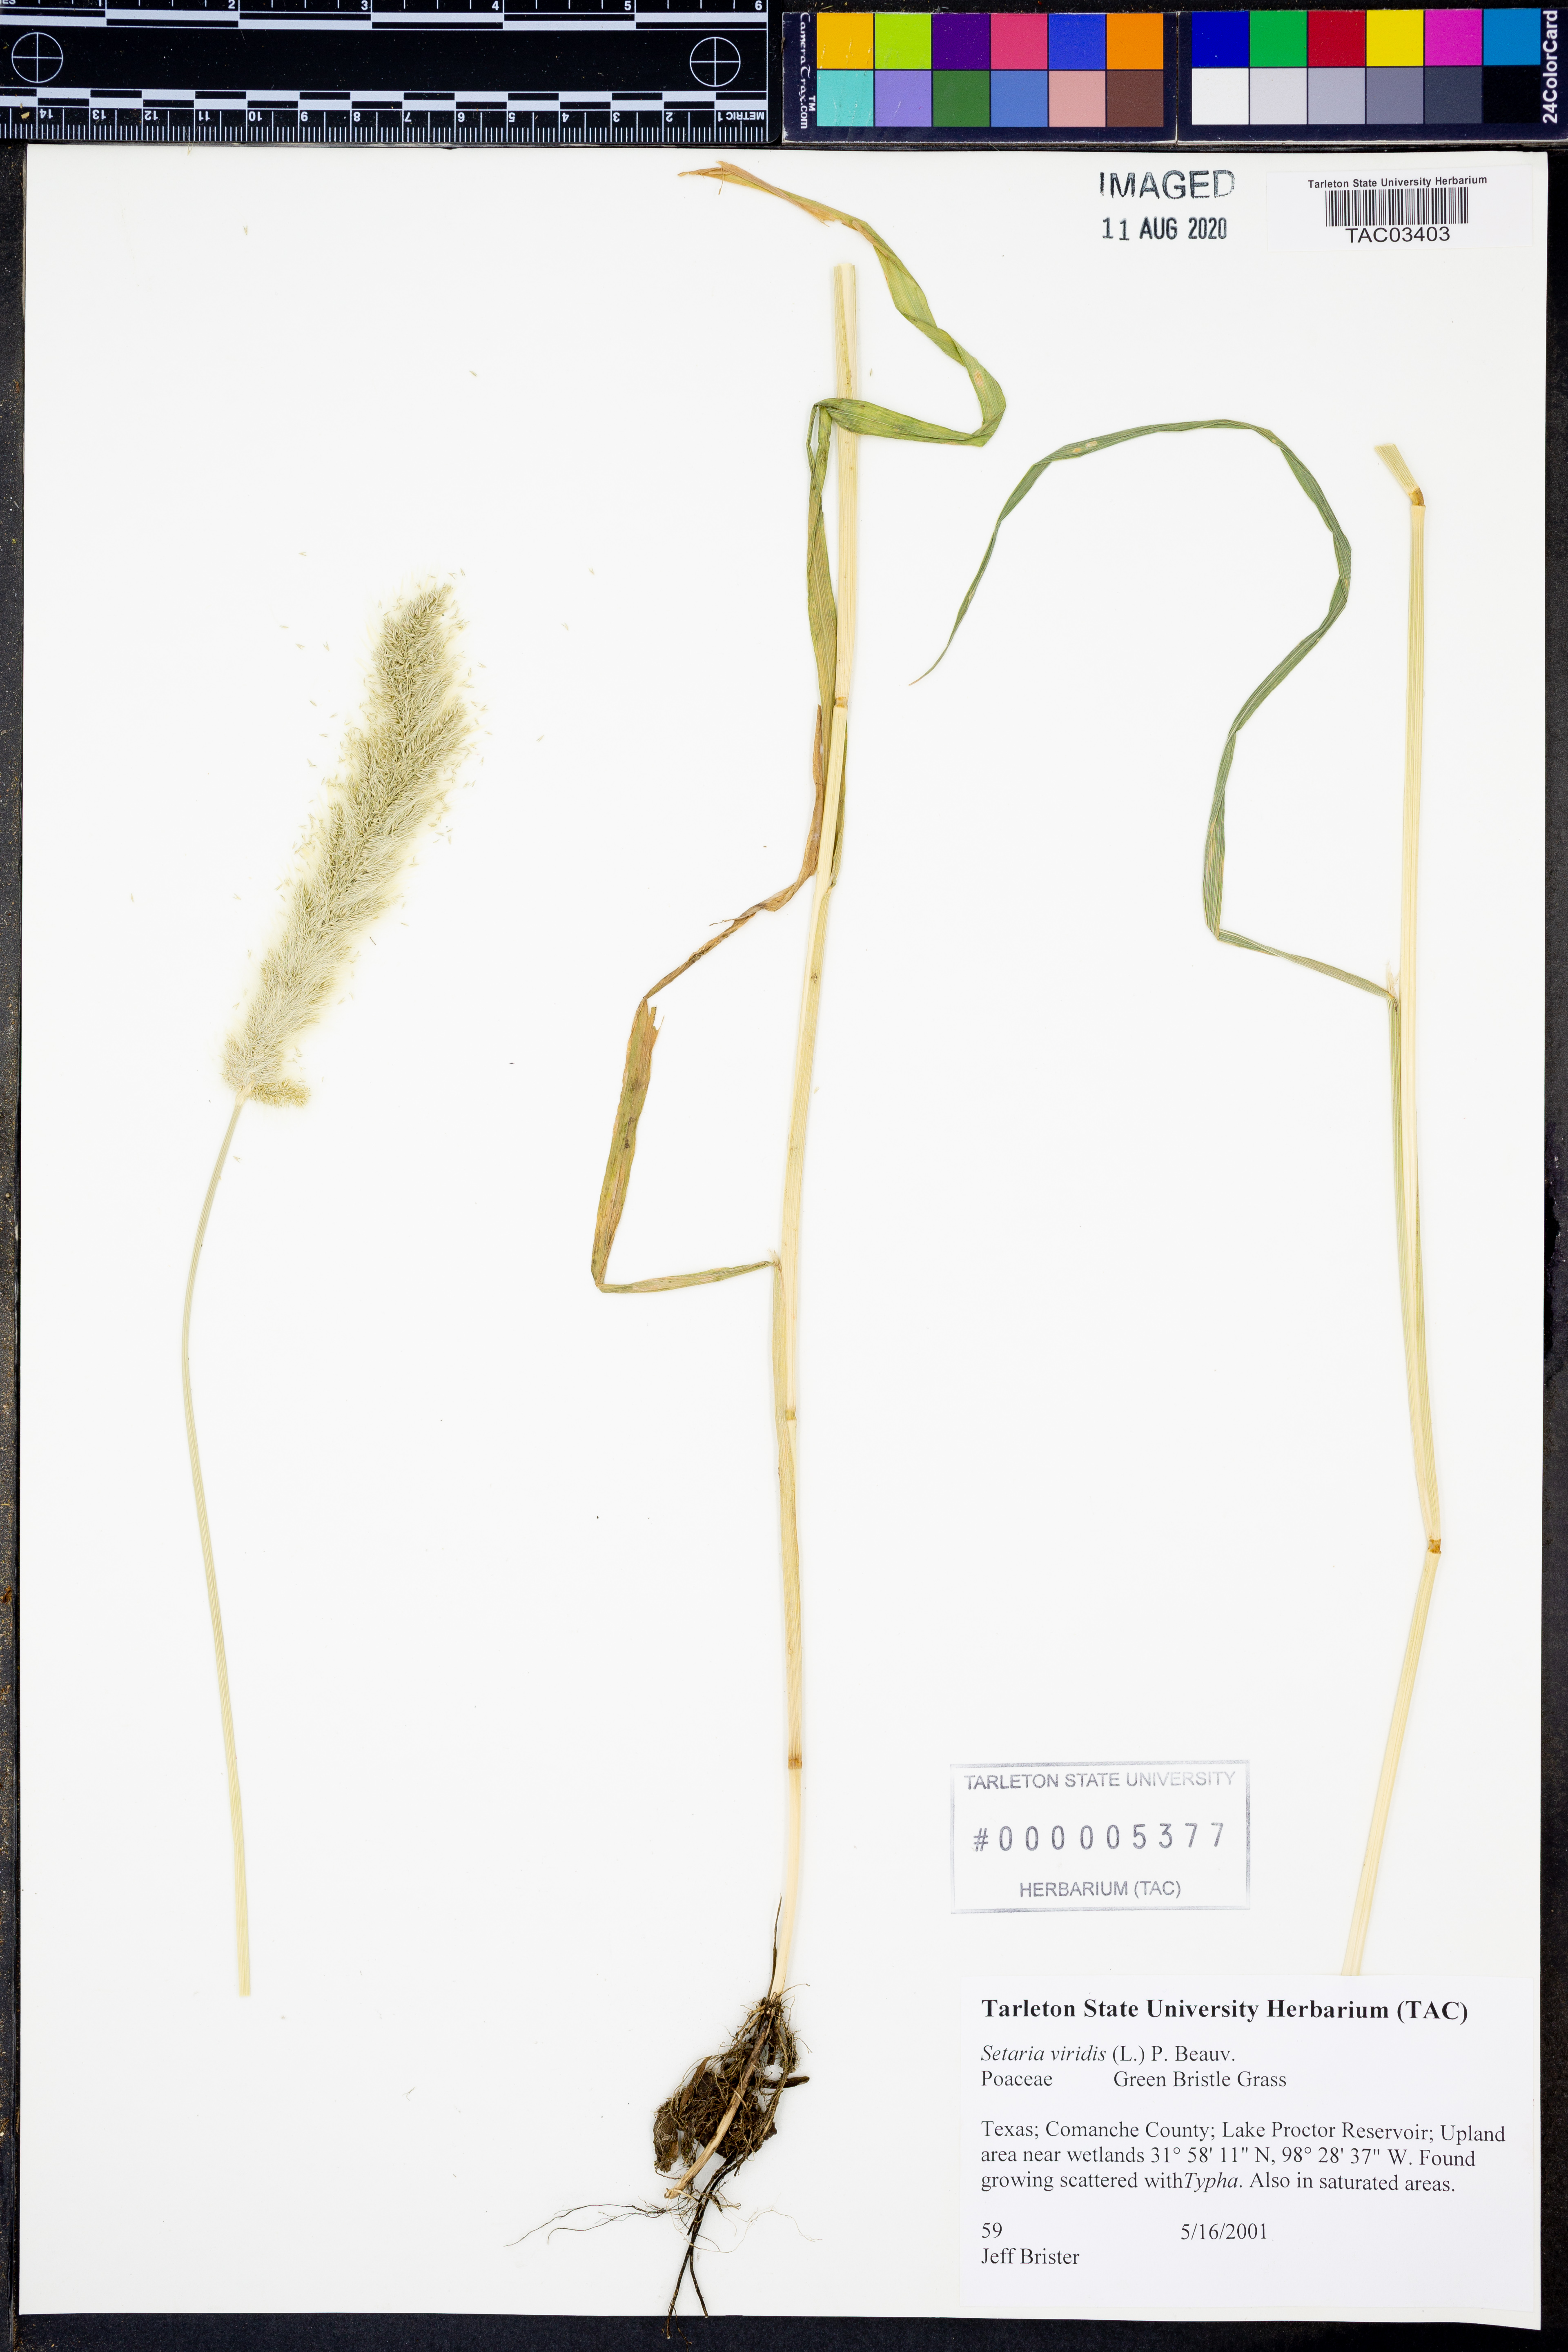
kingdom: Plantae
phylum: Tracheophyta
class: Liliopsida
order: Poales
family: Poaceae
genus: Setaria
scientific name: Setaria viridis
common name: Green bristlegrass
